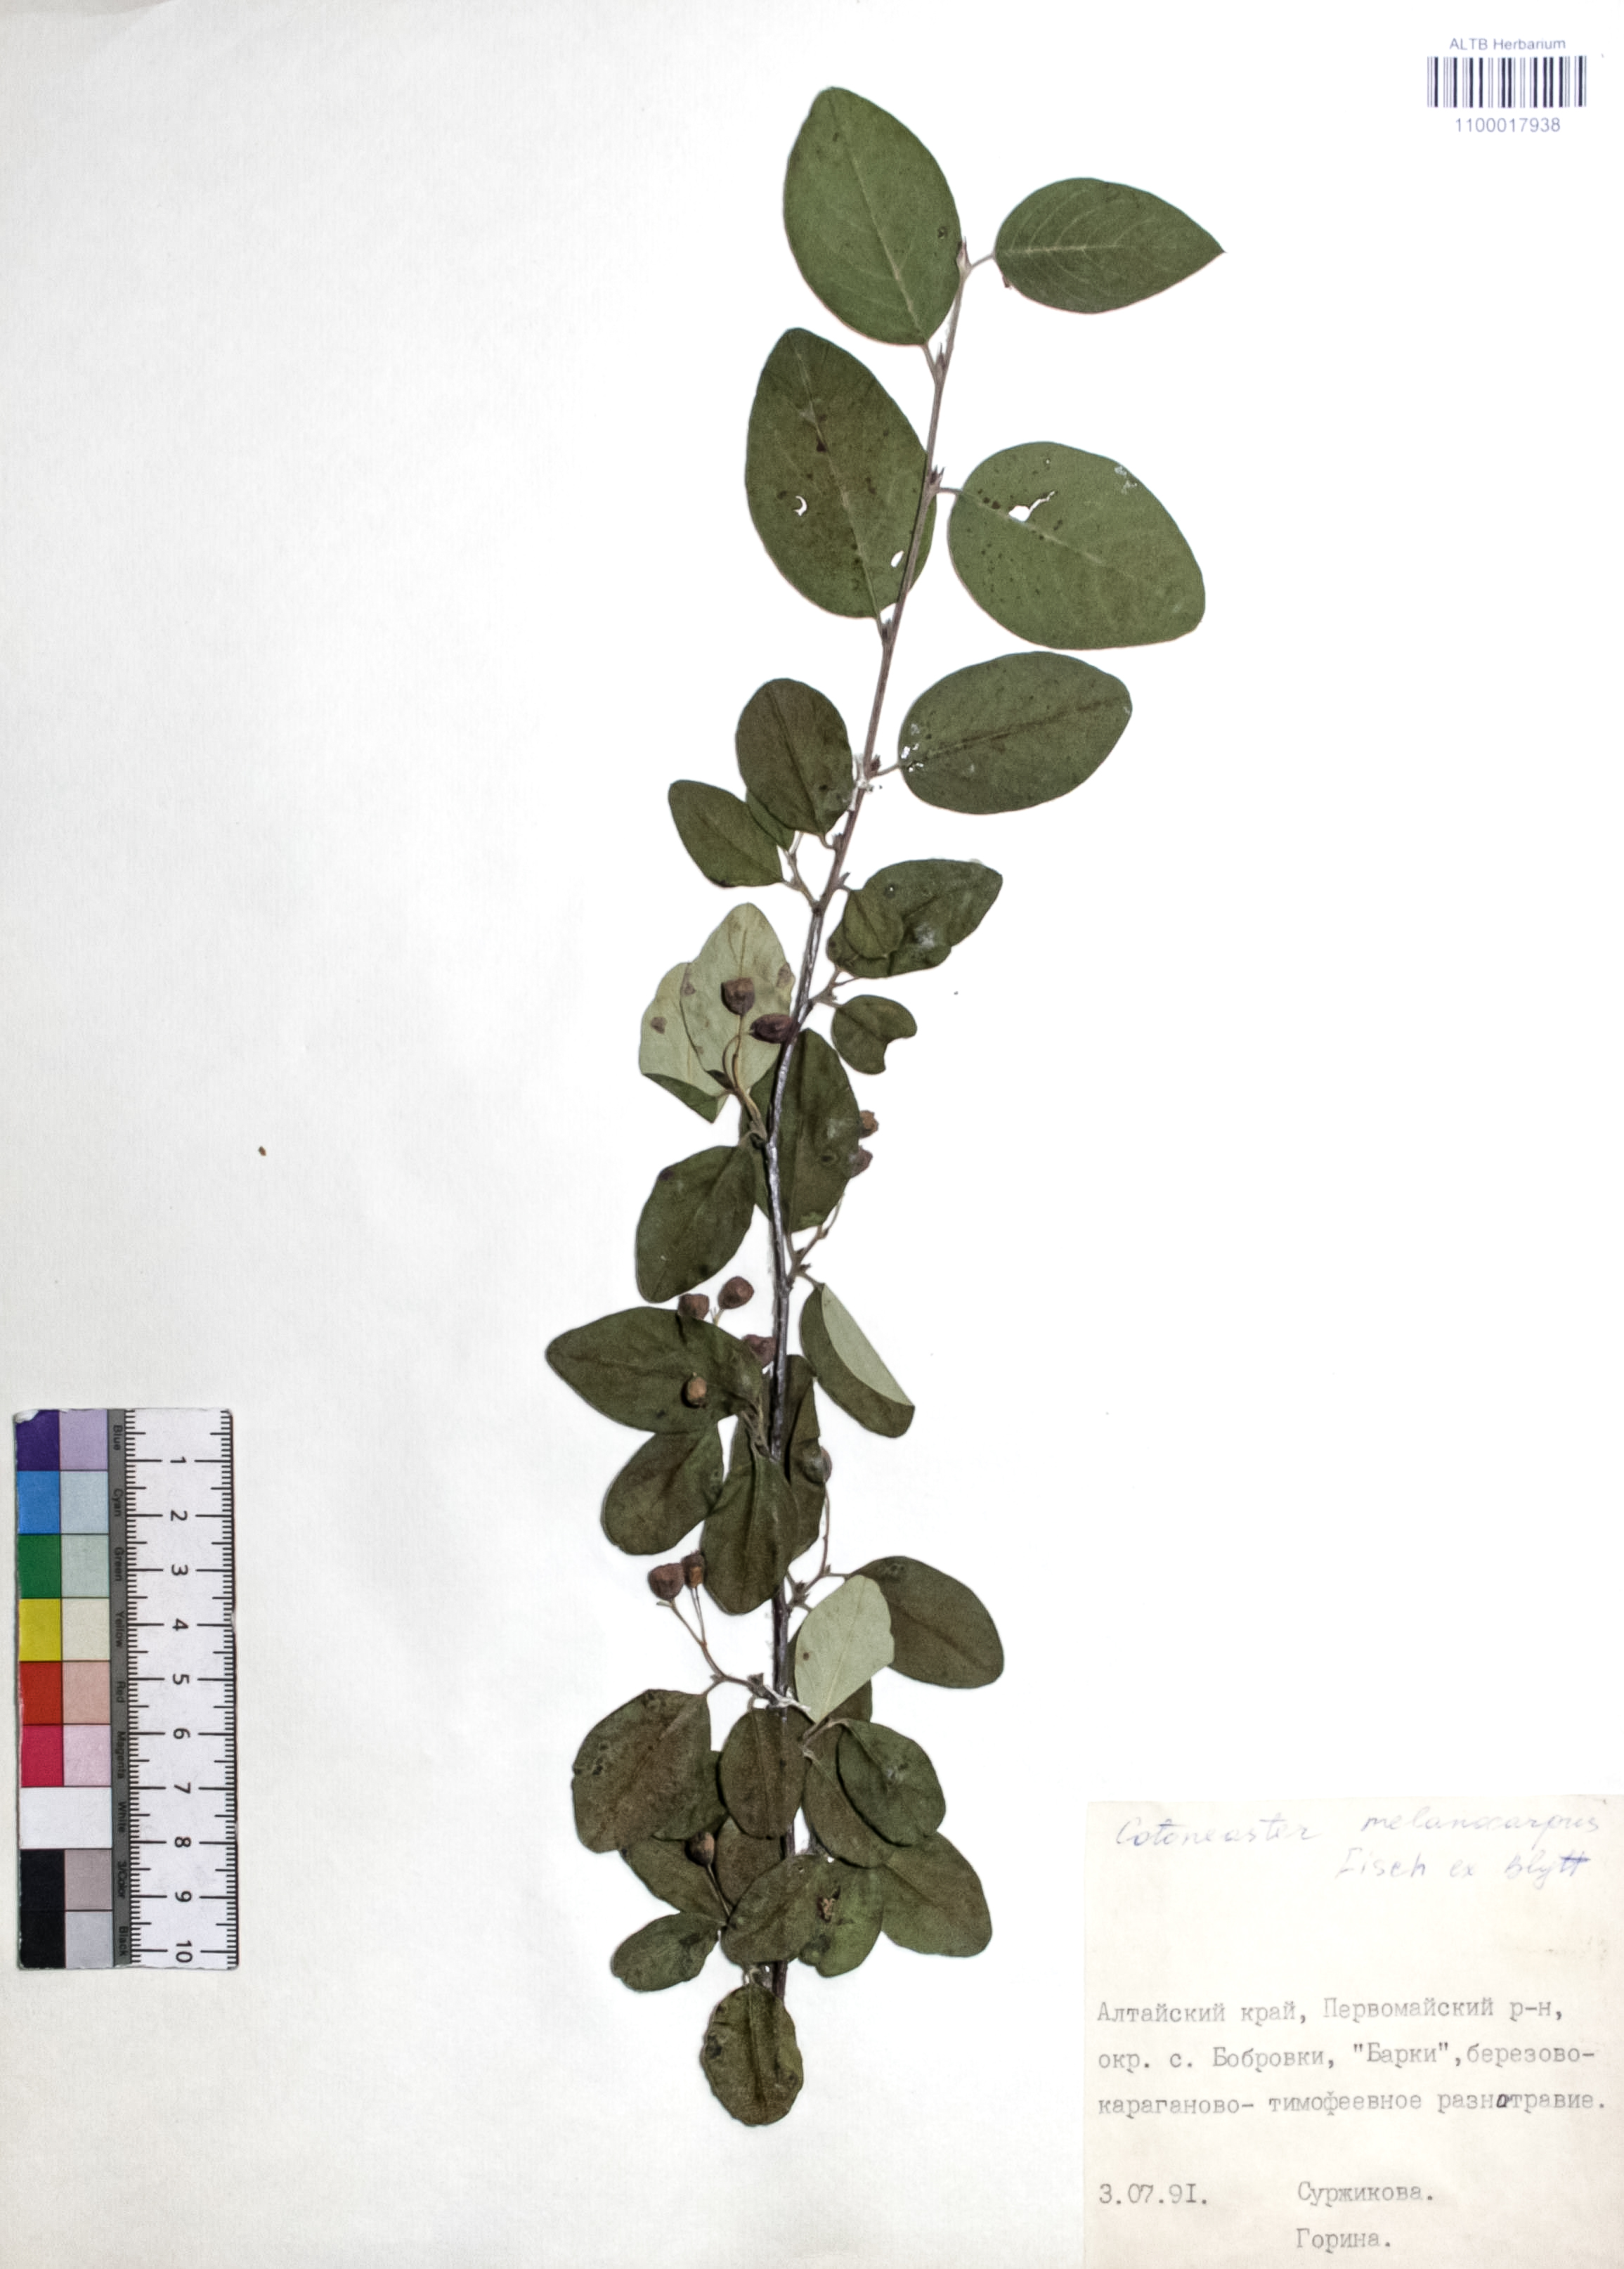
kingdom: Plantae
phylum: Tracheophyta
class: Magnoliopsida
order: Rosales
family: Rosaceae
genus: Cotoneaster
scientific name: Cotoneaster niger
